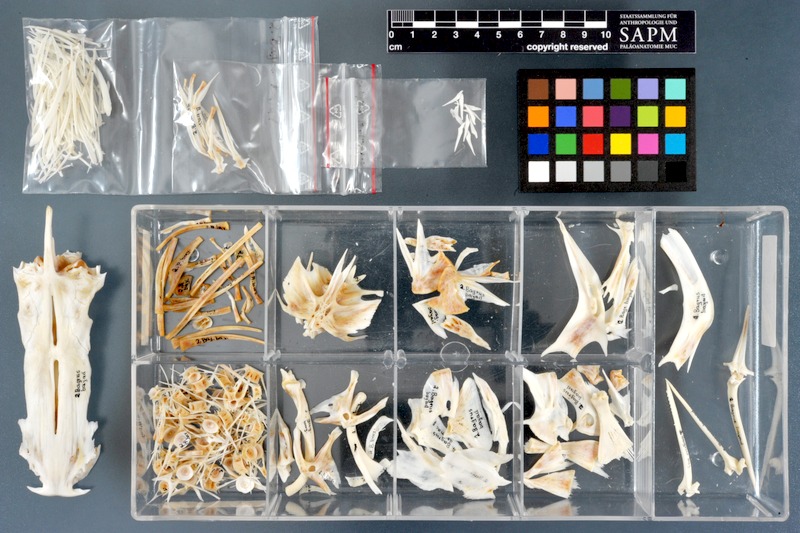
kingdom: Animalia
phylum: Chordata
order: Siluriformes
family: Bagridae
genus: Bagrus
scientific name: Bagrus bajad
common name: Bayad
